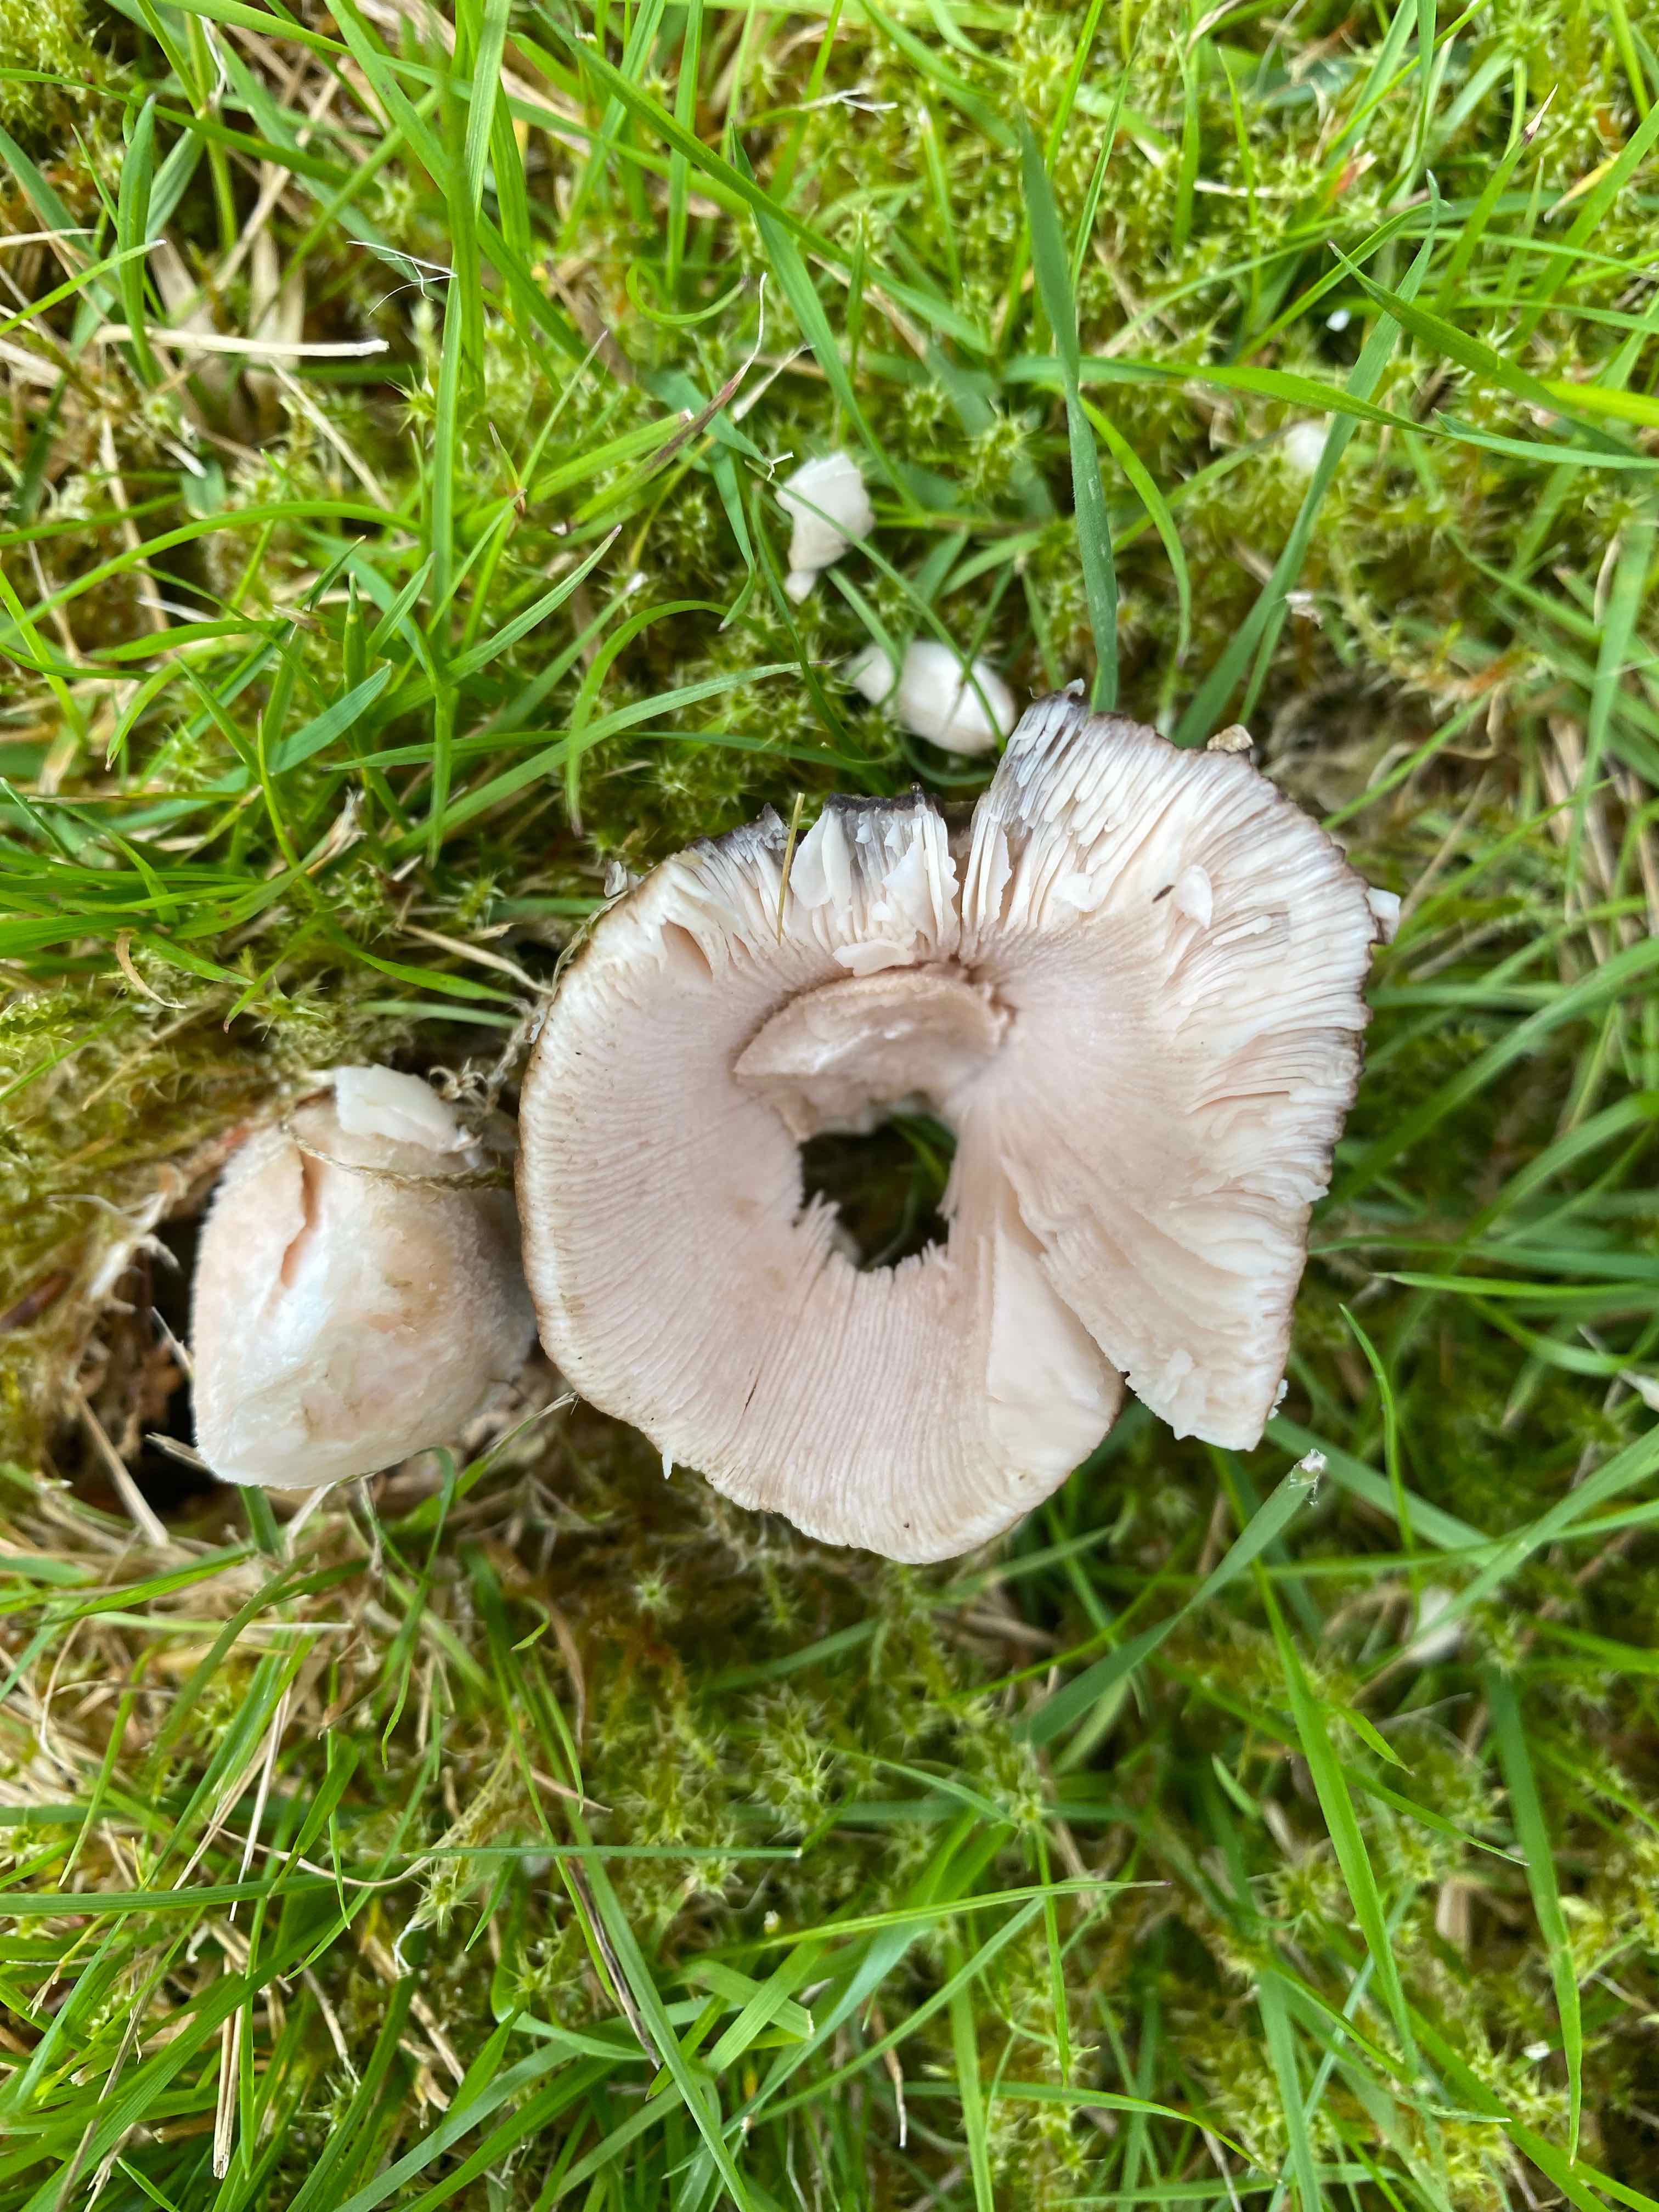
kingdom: Fungi
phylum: Basidiomycota
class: Agaricomycetes
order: Agaricales
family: Amanitaceae
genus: Amanita
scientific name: Amanita
